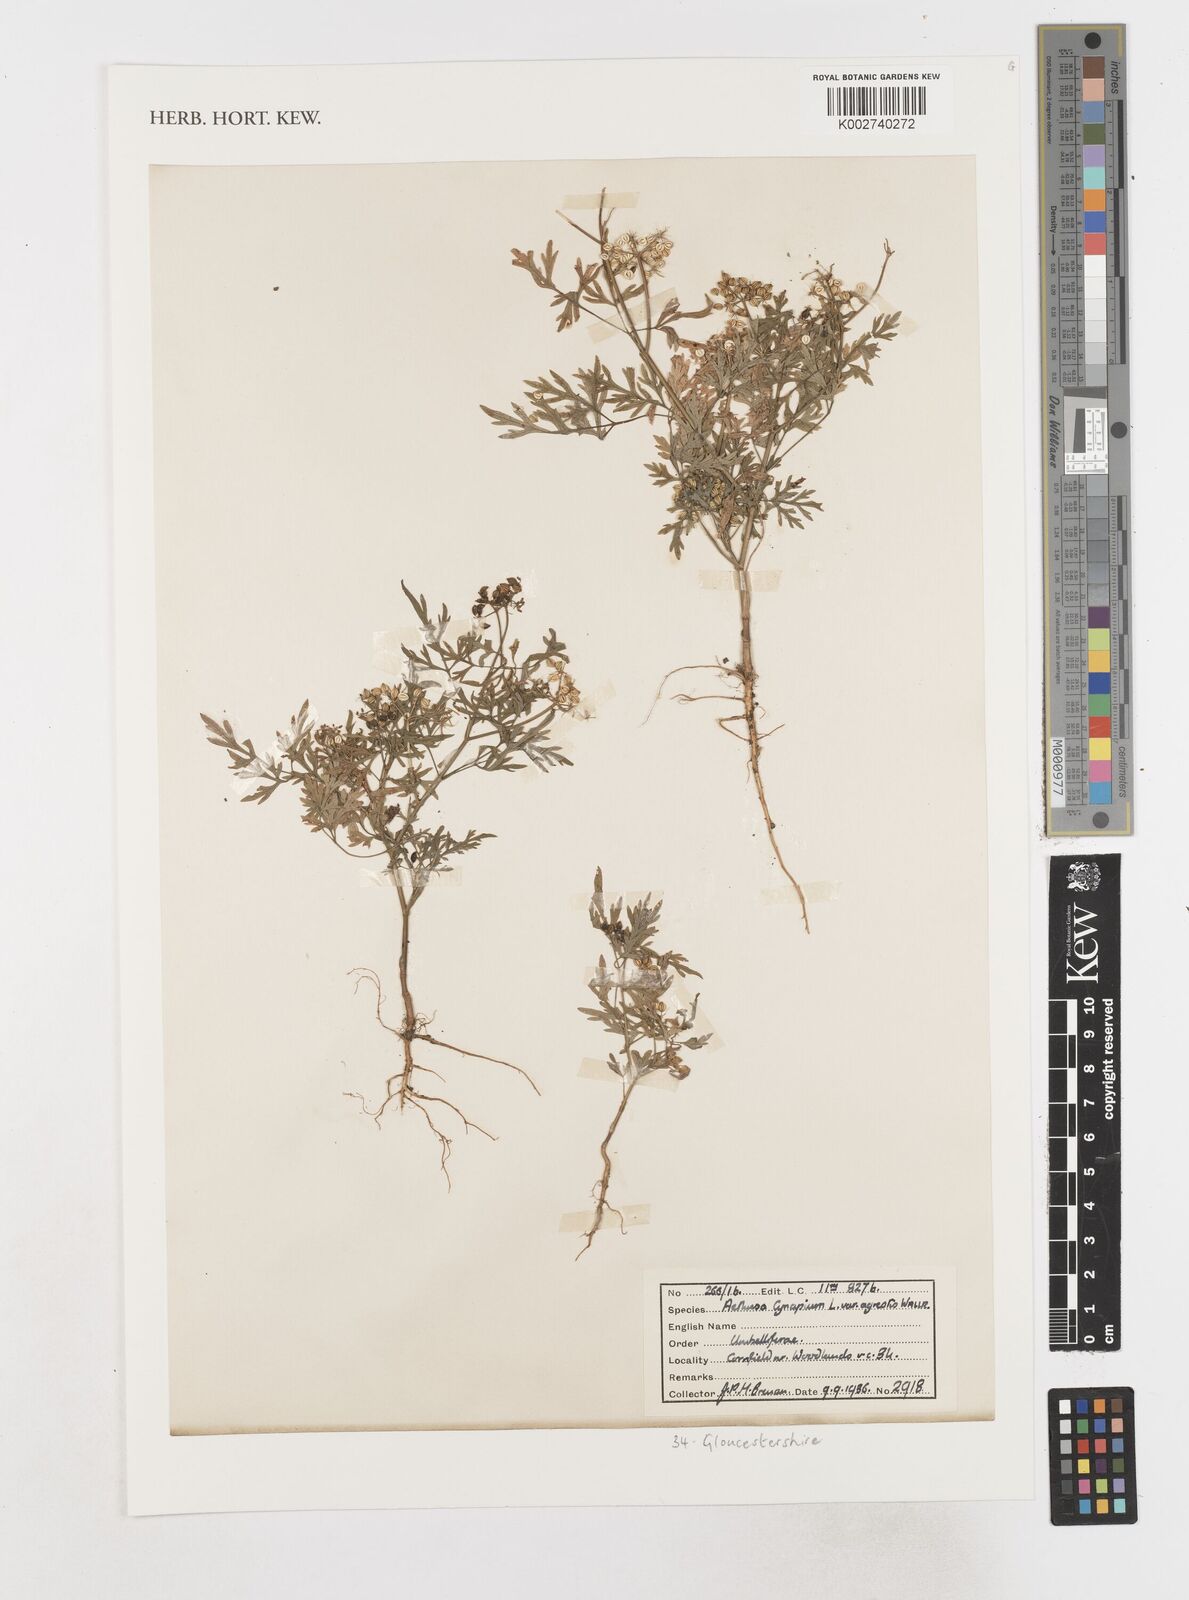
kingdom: Plantae
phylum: Tracheophyta
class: Magnoliopsida
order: Apiales
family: Apiaceae
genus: Aethusa
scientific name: Aethusa cynapium
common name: Fool's parsley
